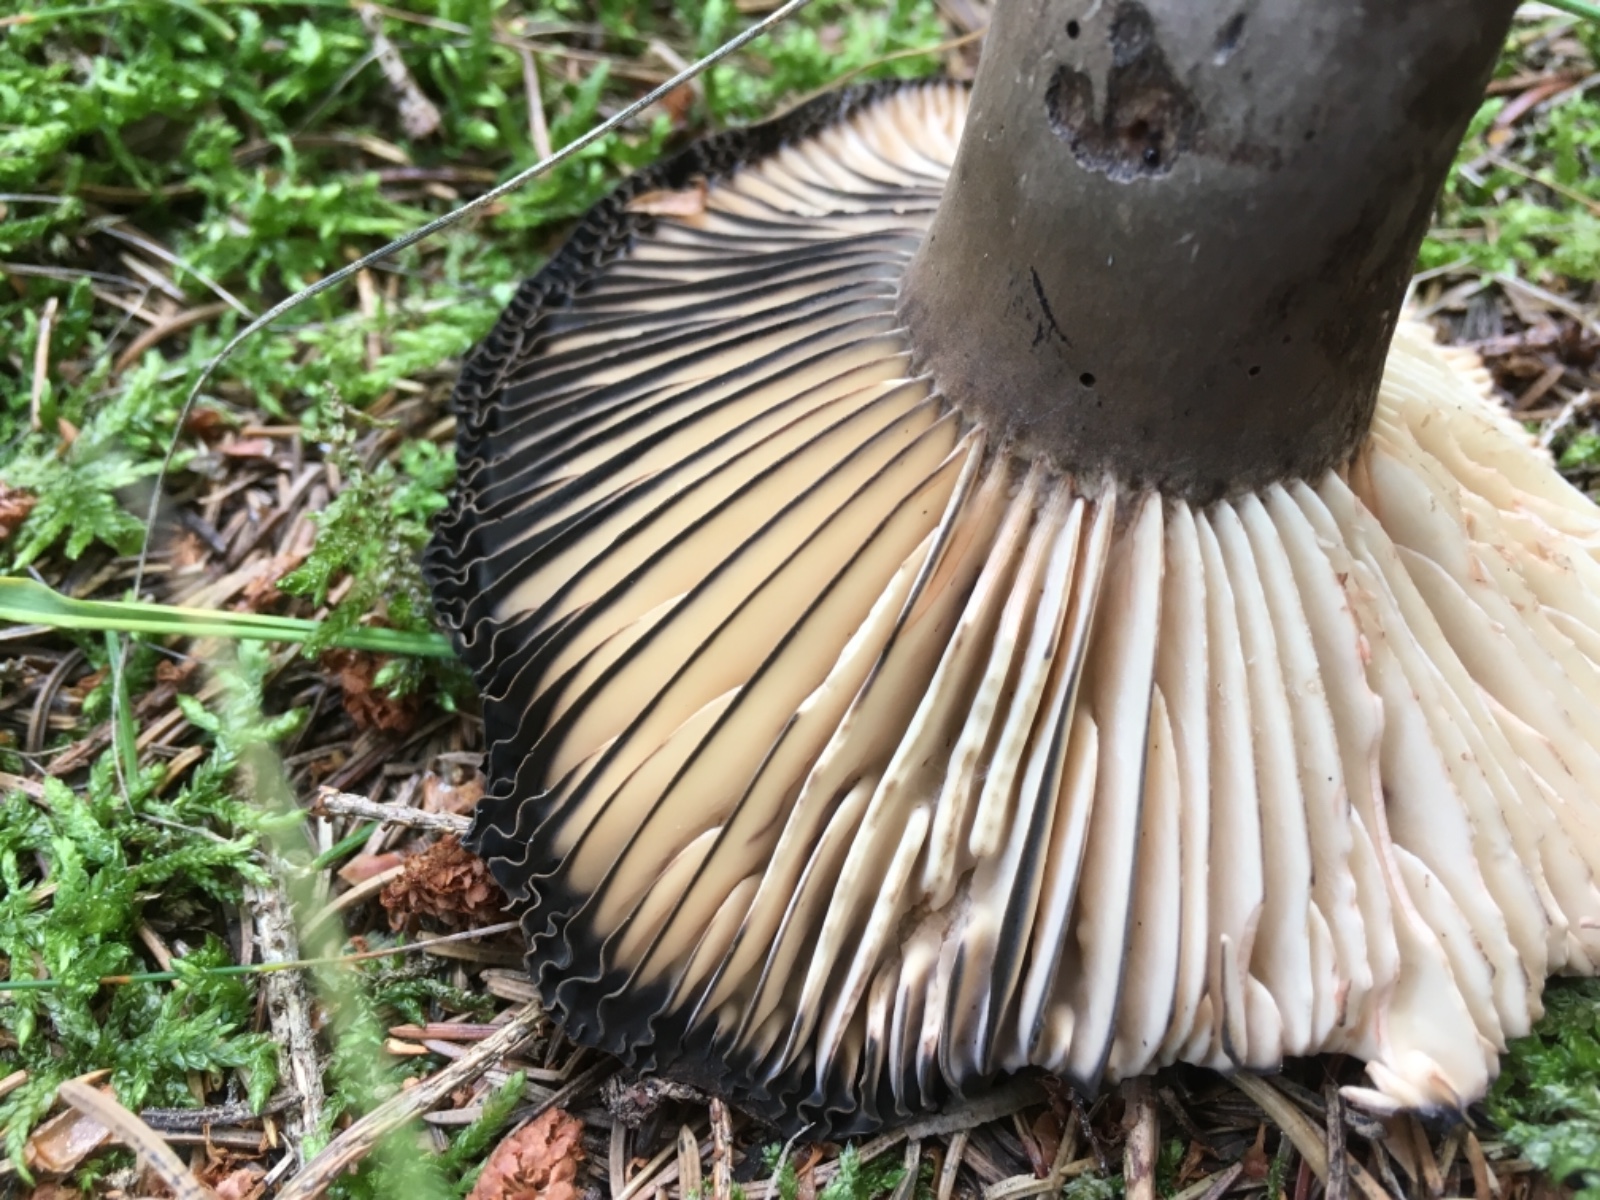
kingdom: Fungi
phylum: Basidiomycota
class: Agaricomycetes
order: Russulales
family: Russulaceae
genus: Russula
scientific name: Russula adusta
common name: sværtende skørhat
